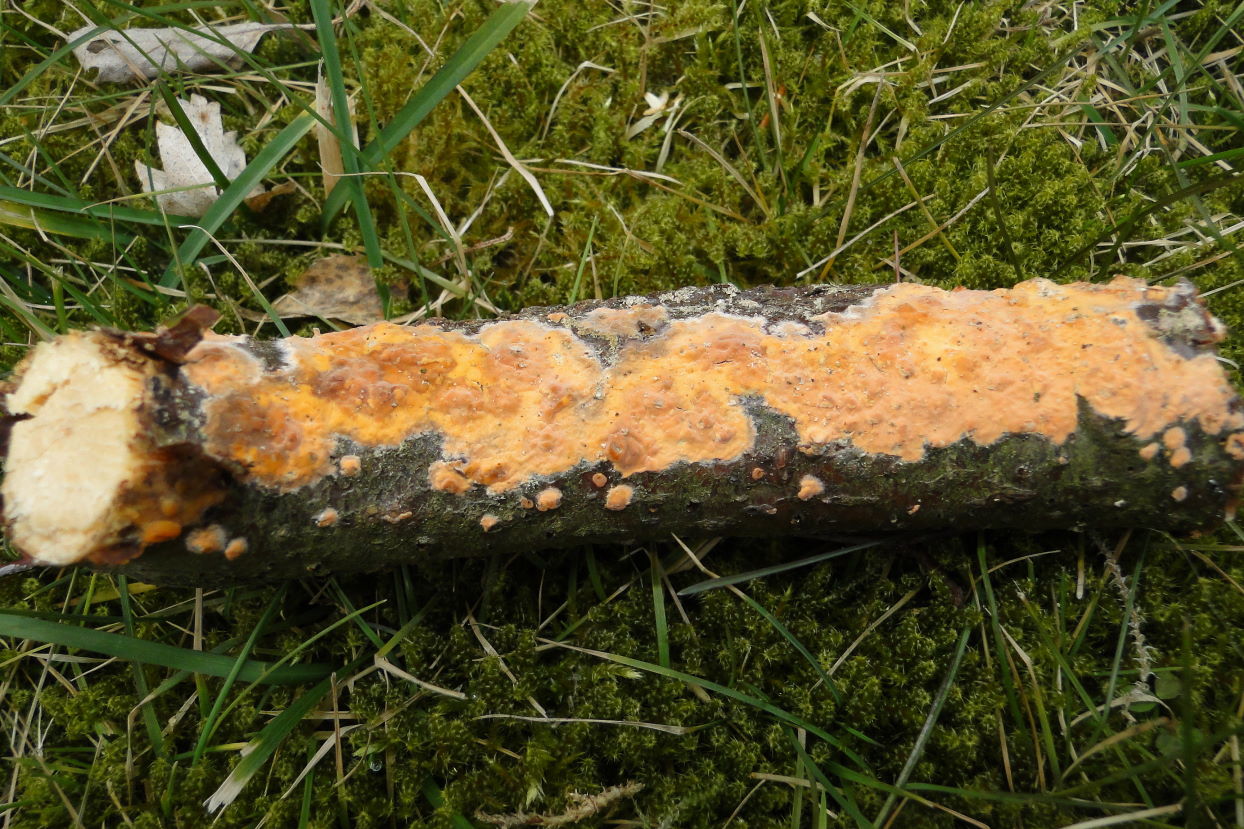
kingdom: Fungi
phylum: Basidiomycota
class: Agaricomycetes
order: Russulales
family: Peniophoraceae
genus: Peniophora
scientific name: Peniophora incarnata
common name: laksefarvet voksskind
